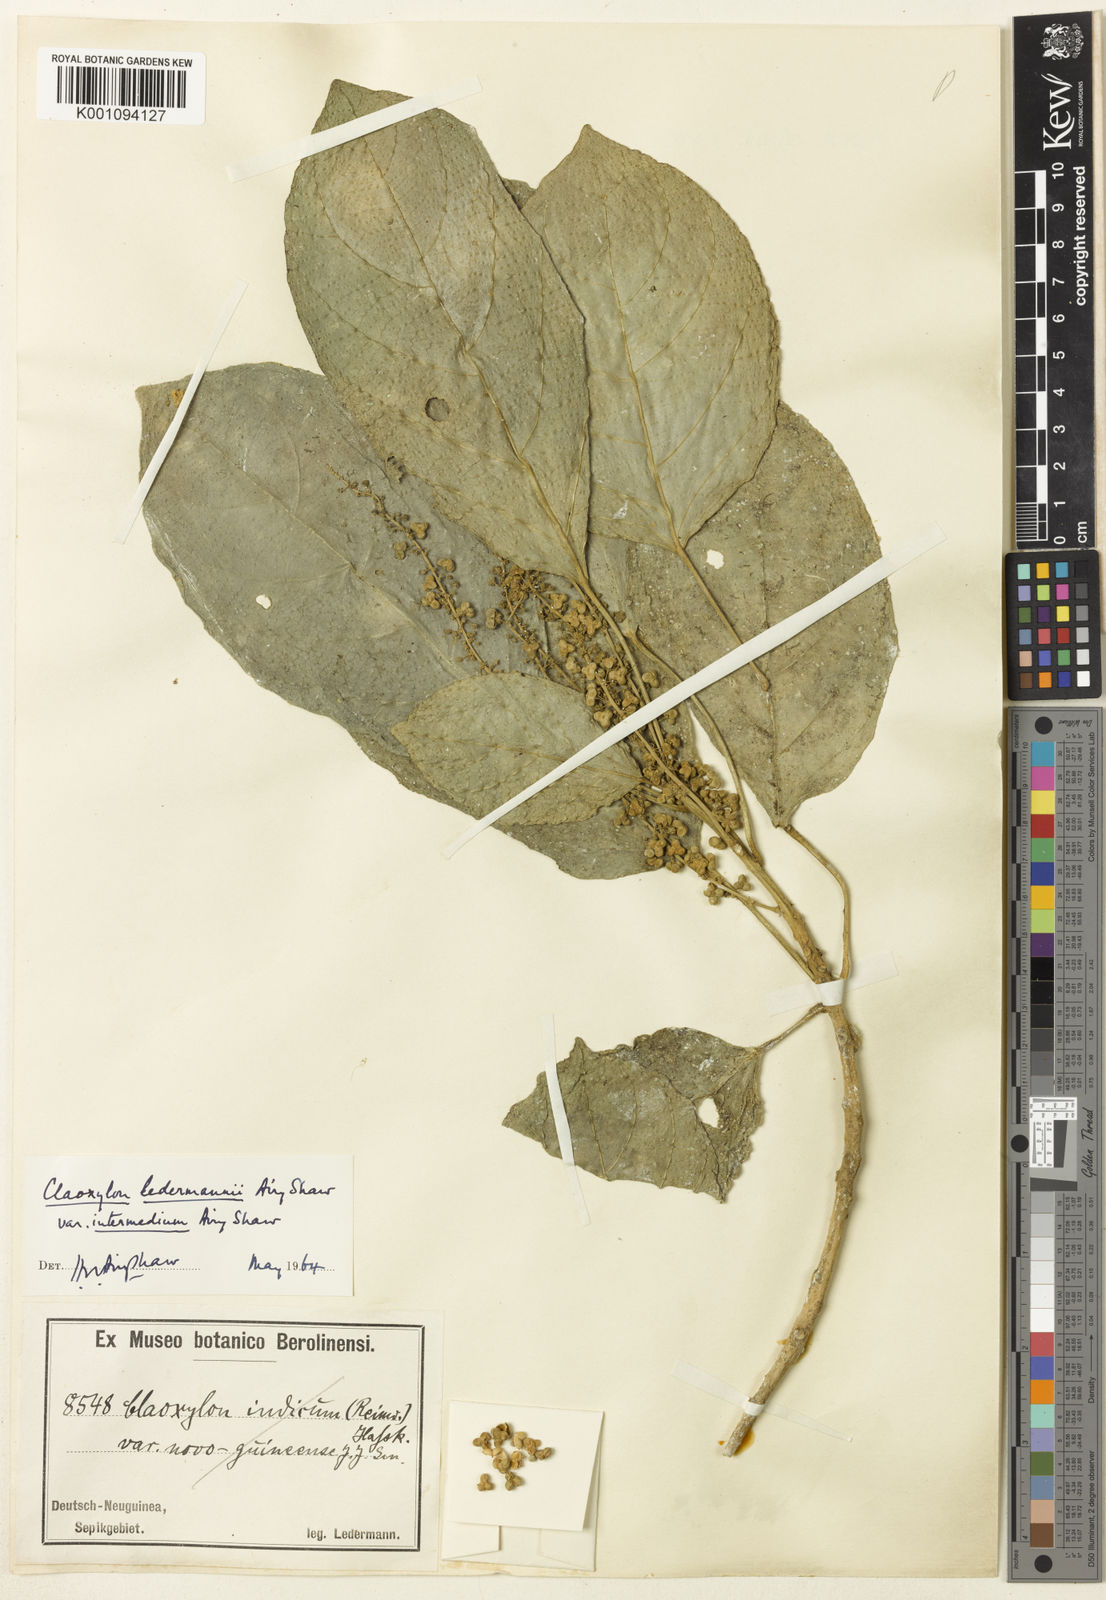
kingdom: Plantae
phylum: Tracheophyta
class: Magnoliopsida
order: Malpighiales
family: Euphorbiaceae
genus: Claoxylon
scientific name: Claoxylon ledermannii
